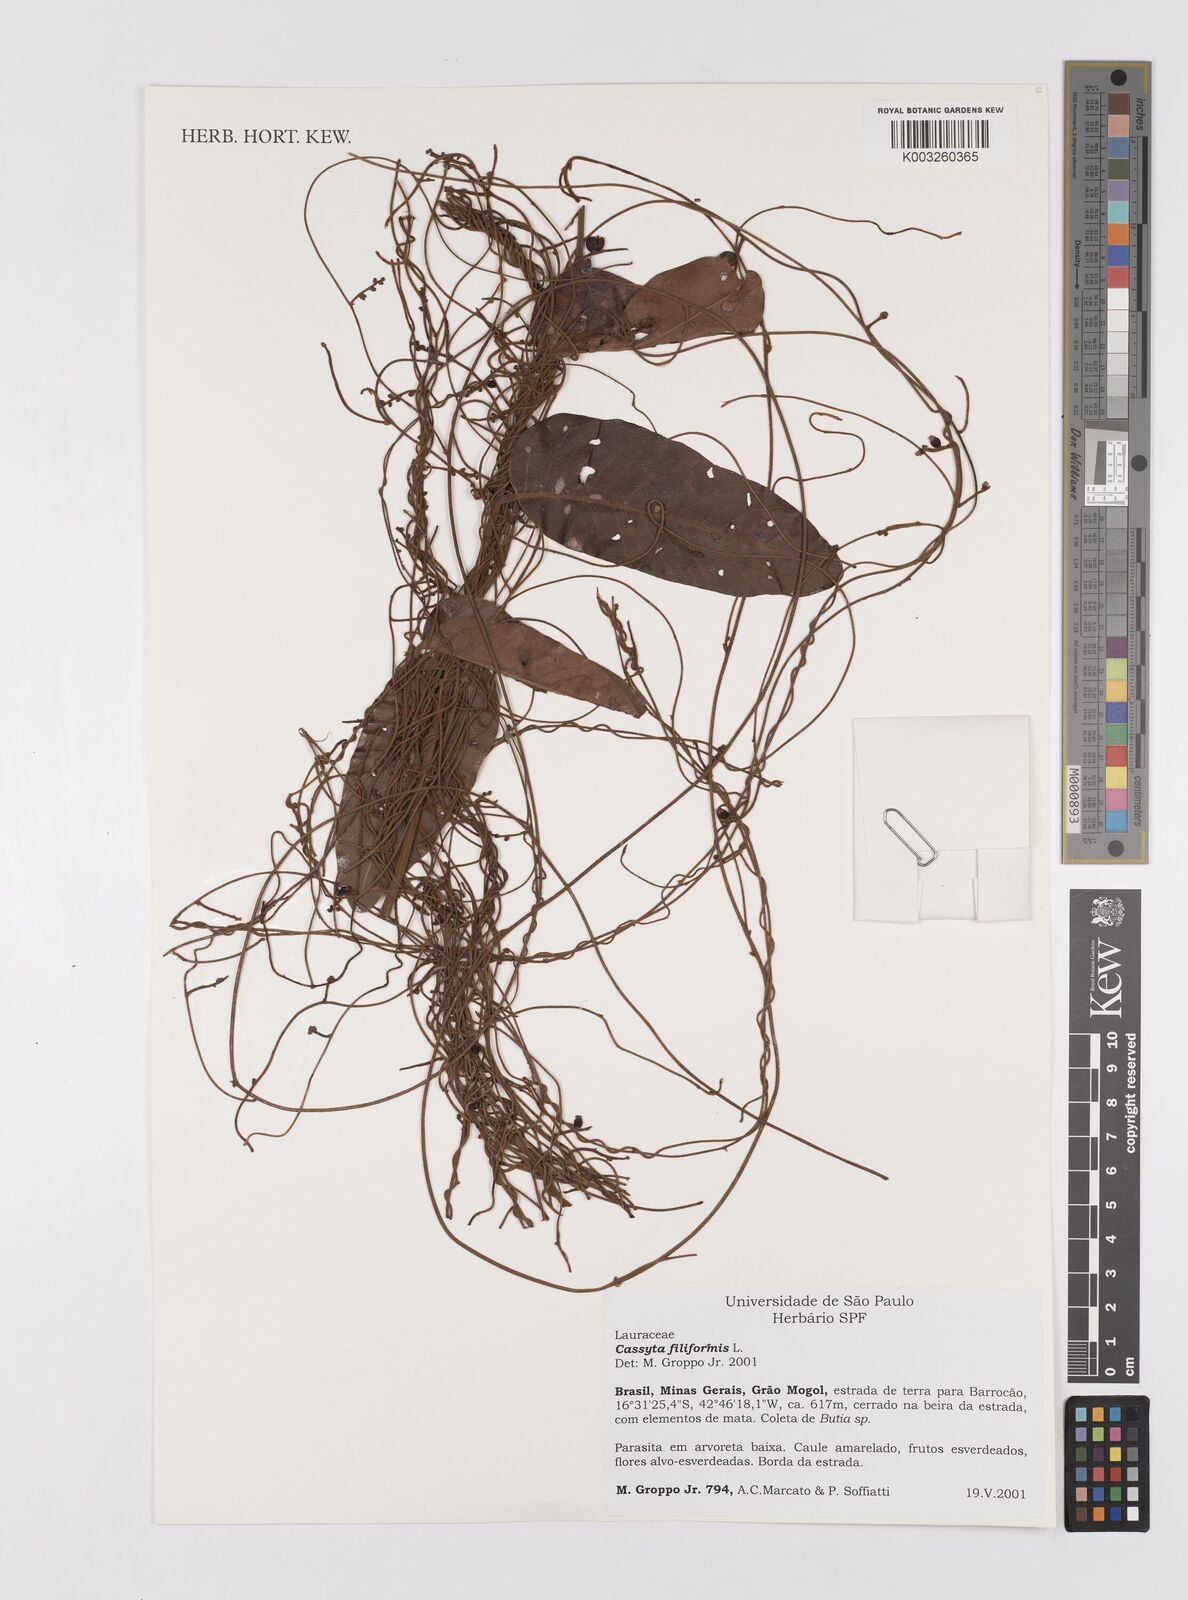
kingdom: Plantae
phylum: Tracheophyta
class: Magnoliopsida
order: Laurales
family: Lauraceae
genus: Cassytha
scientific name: Cassytha filiformis
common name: Dodder-laurel
